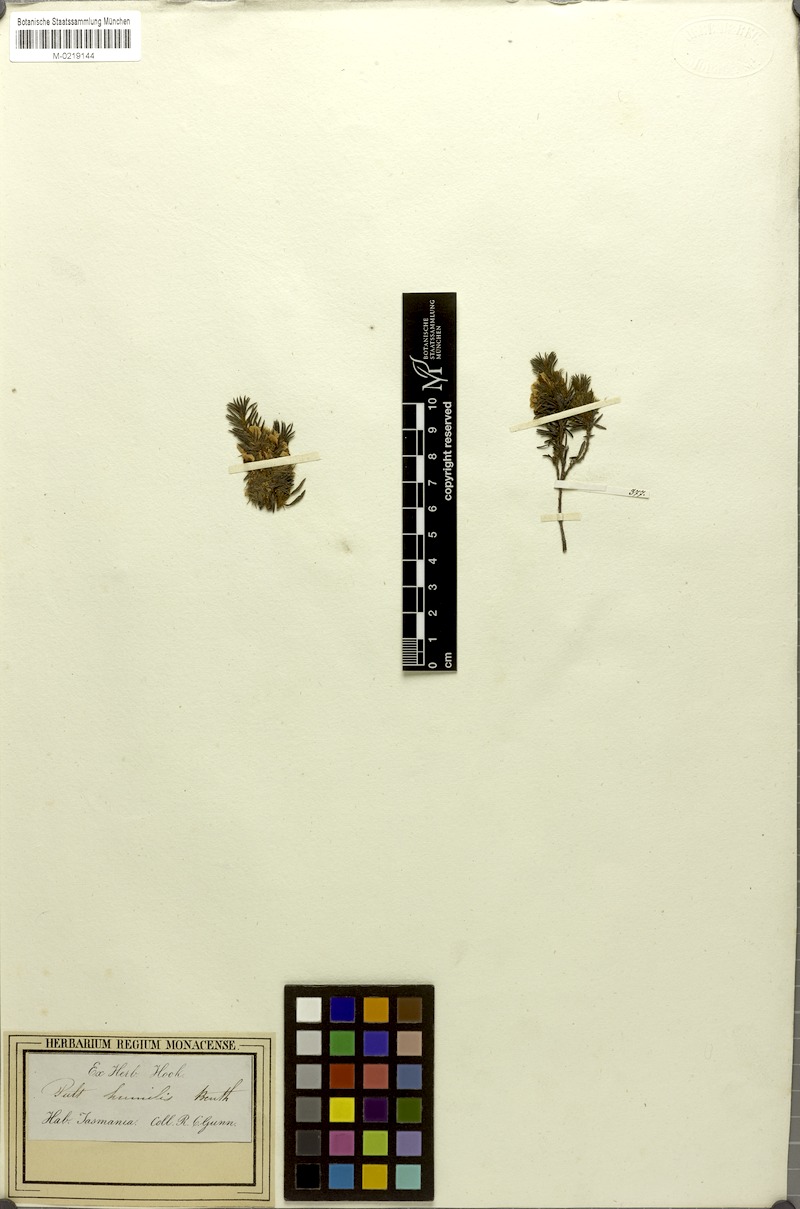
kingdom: Plantae
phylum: Tracheophyta
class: Magnoliopsida
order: Fabales
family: Fabaceae
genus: Pultenaea
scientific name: Pultenaea humilis
